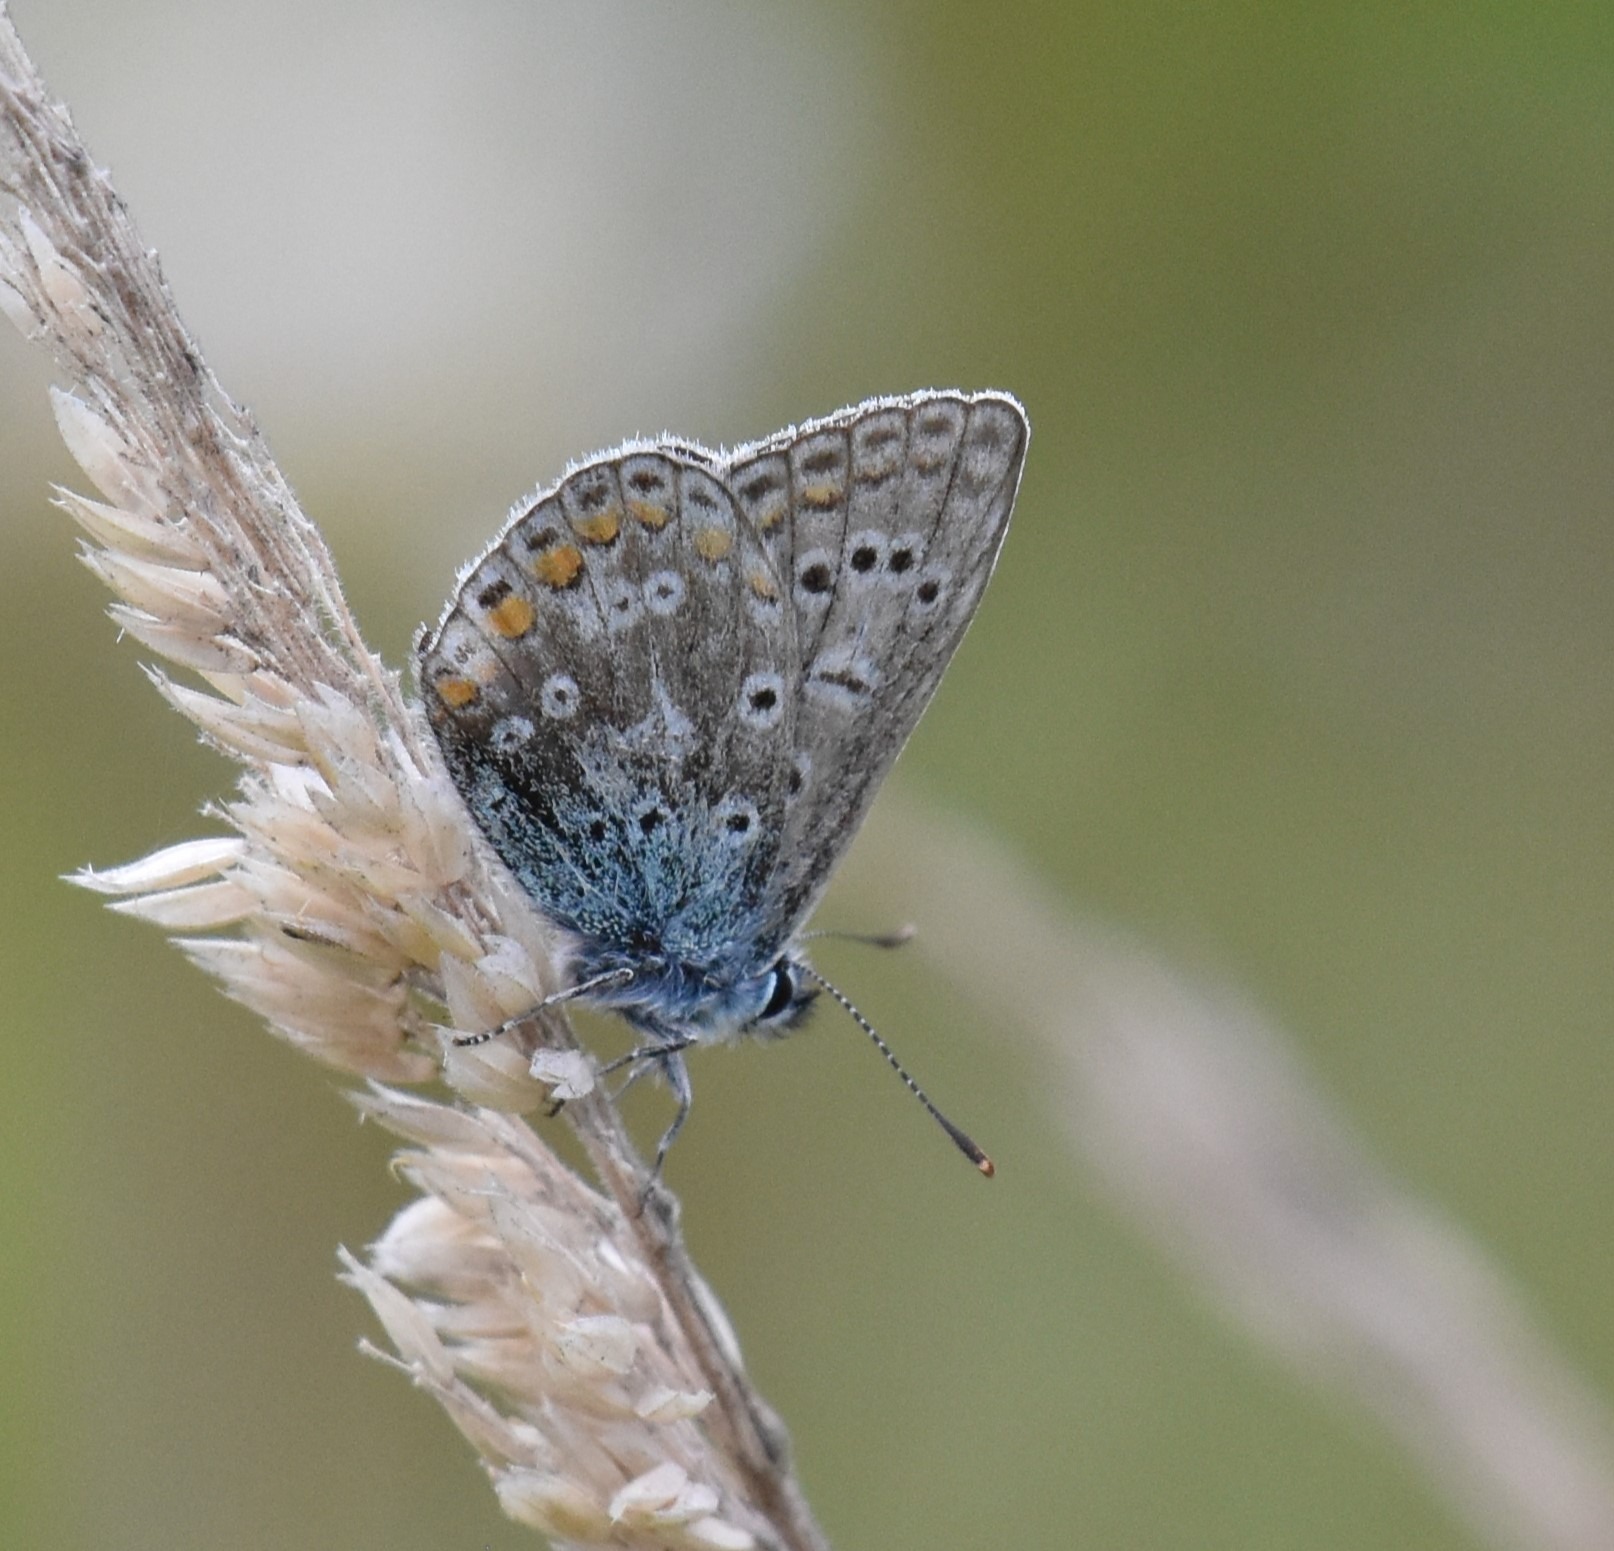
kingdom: Animalia
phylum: Arthropoda
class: Insecta
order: Lepidoptera
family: Lycaenidae
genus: Polyommatus
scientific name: Polyommatus icarus
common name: Almindelig blåfugl
